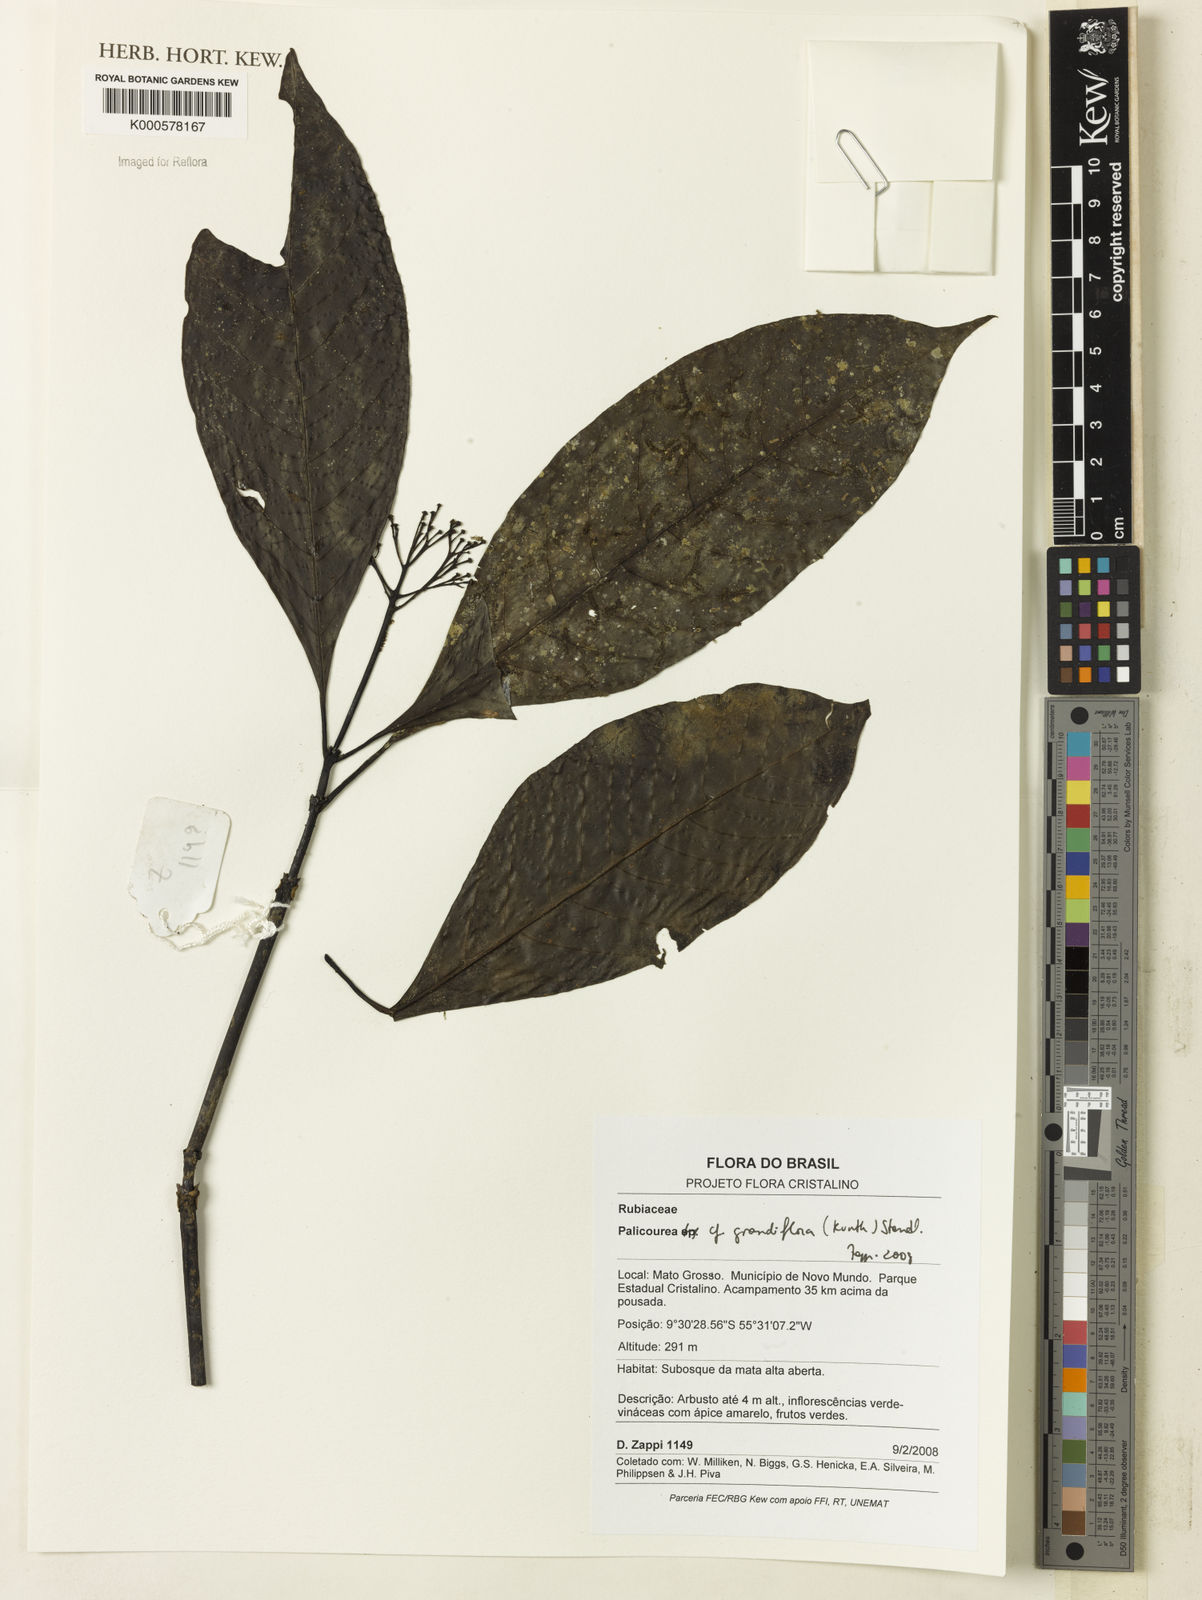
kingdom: Plantae
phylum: Tracheophyta
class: Magnoliopsida
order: Gentianales
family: Rubiaceae
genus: Palicourea
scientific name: Palicourea grandiflora
